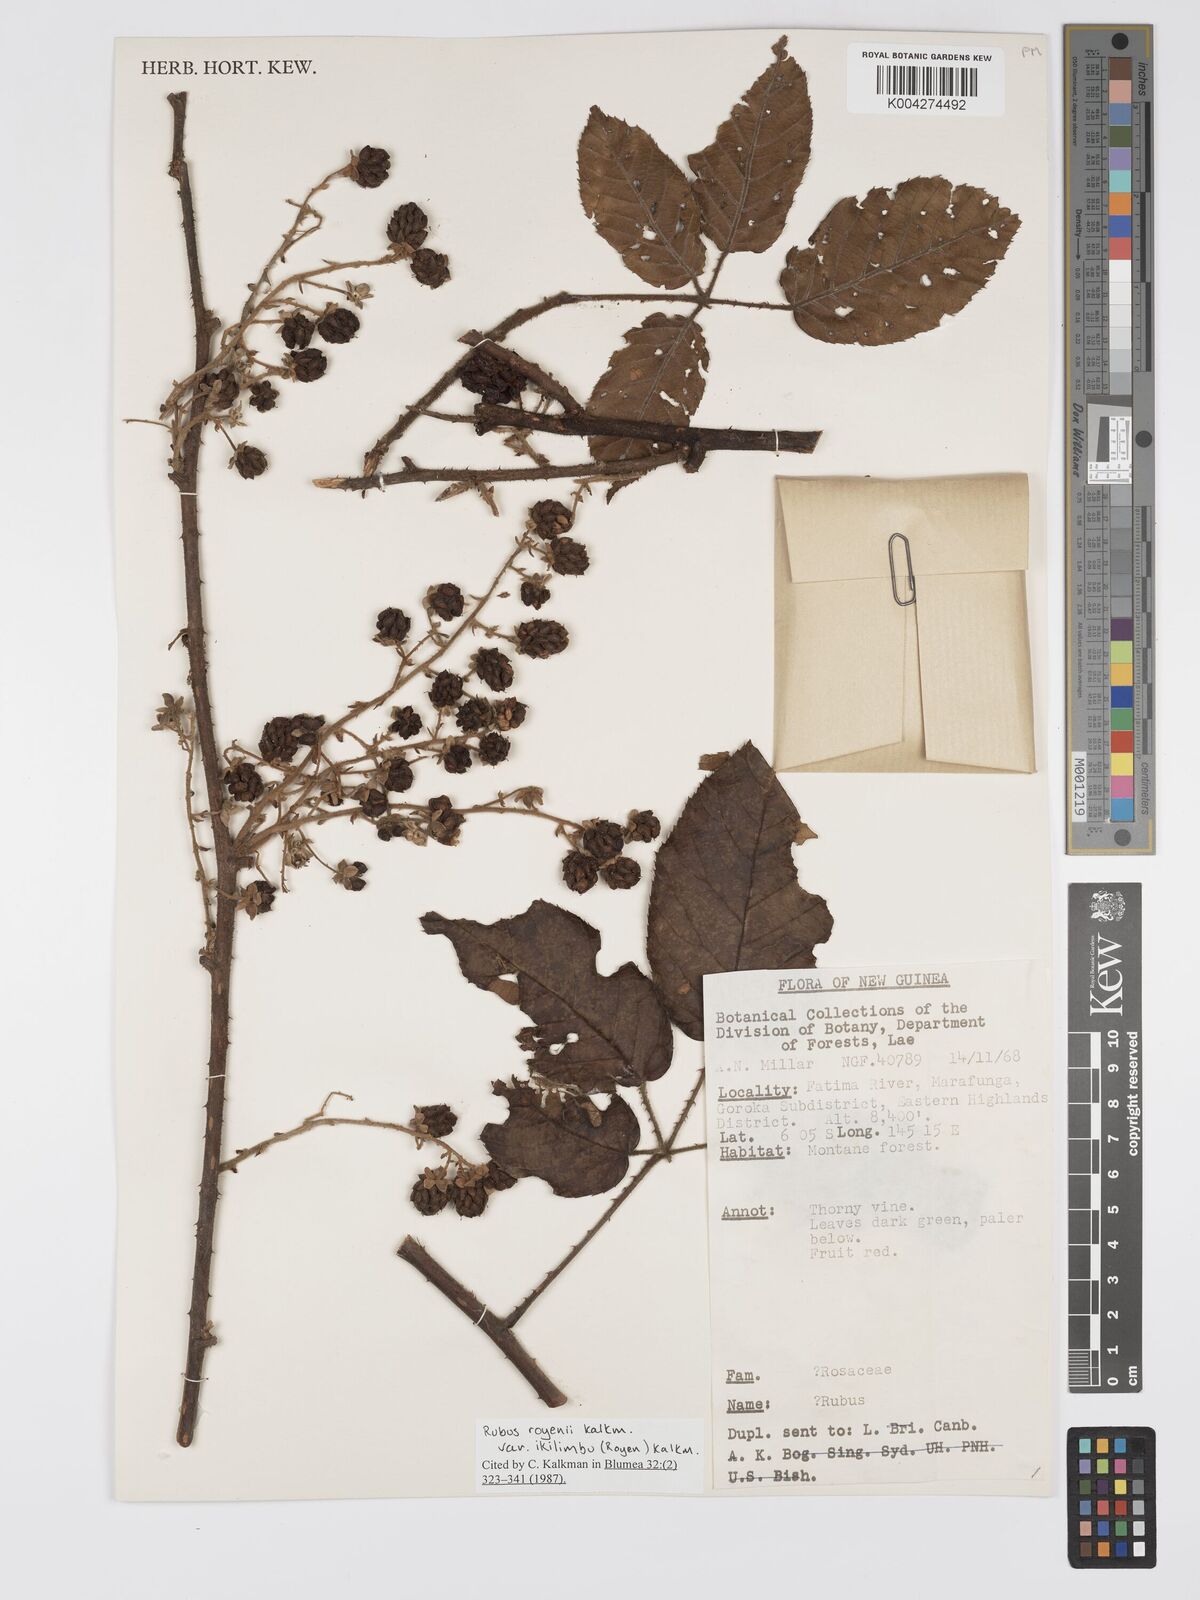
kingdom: Plantae
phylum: Tracheophyta
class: Magnoliopsida
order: Rosales
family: Rosaceae
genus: Rubus
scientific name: Rubus royenii
